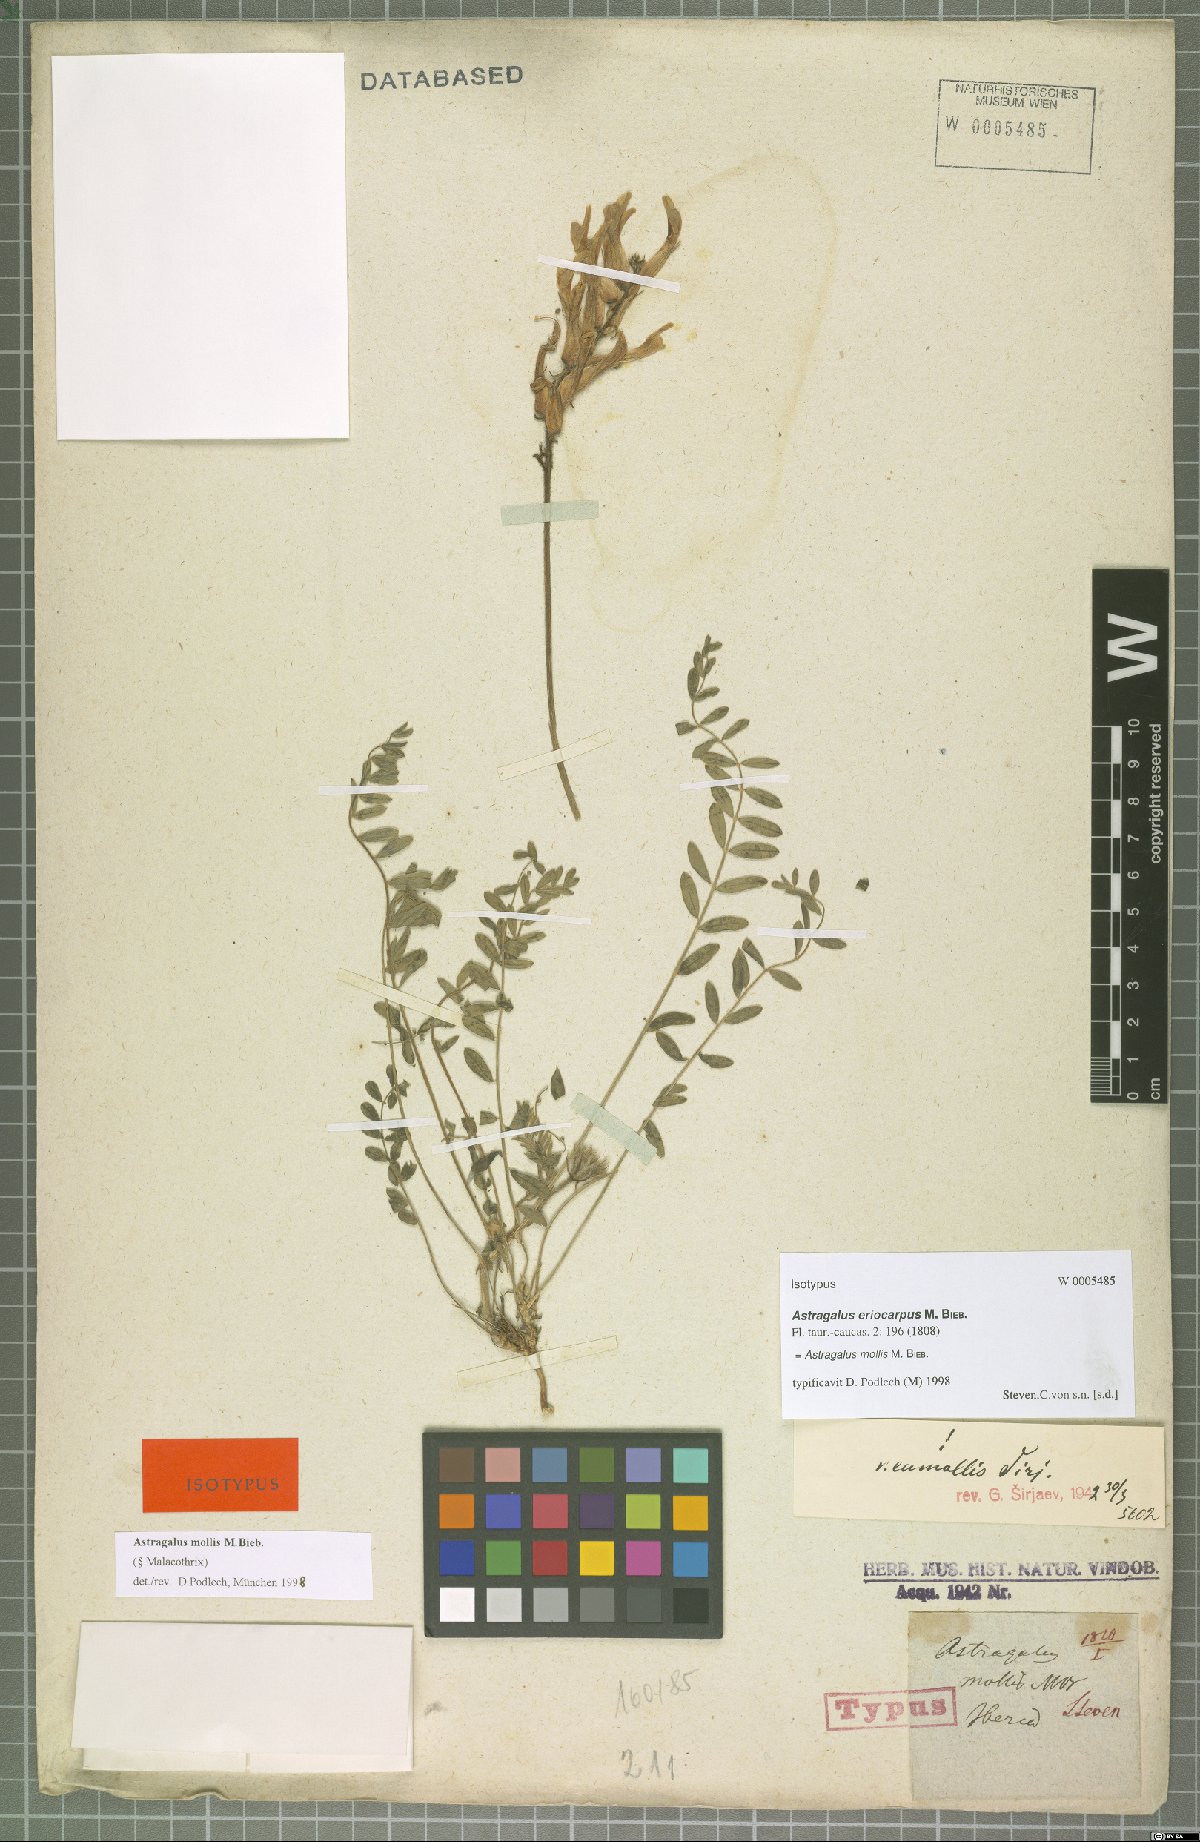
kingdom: Plantae
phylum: Tracheophyta
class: Magnoliopsida
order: Fabales
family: Fabaceae
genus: Astragalus
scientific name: Astragalus mollis
